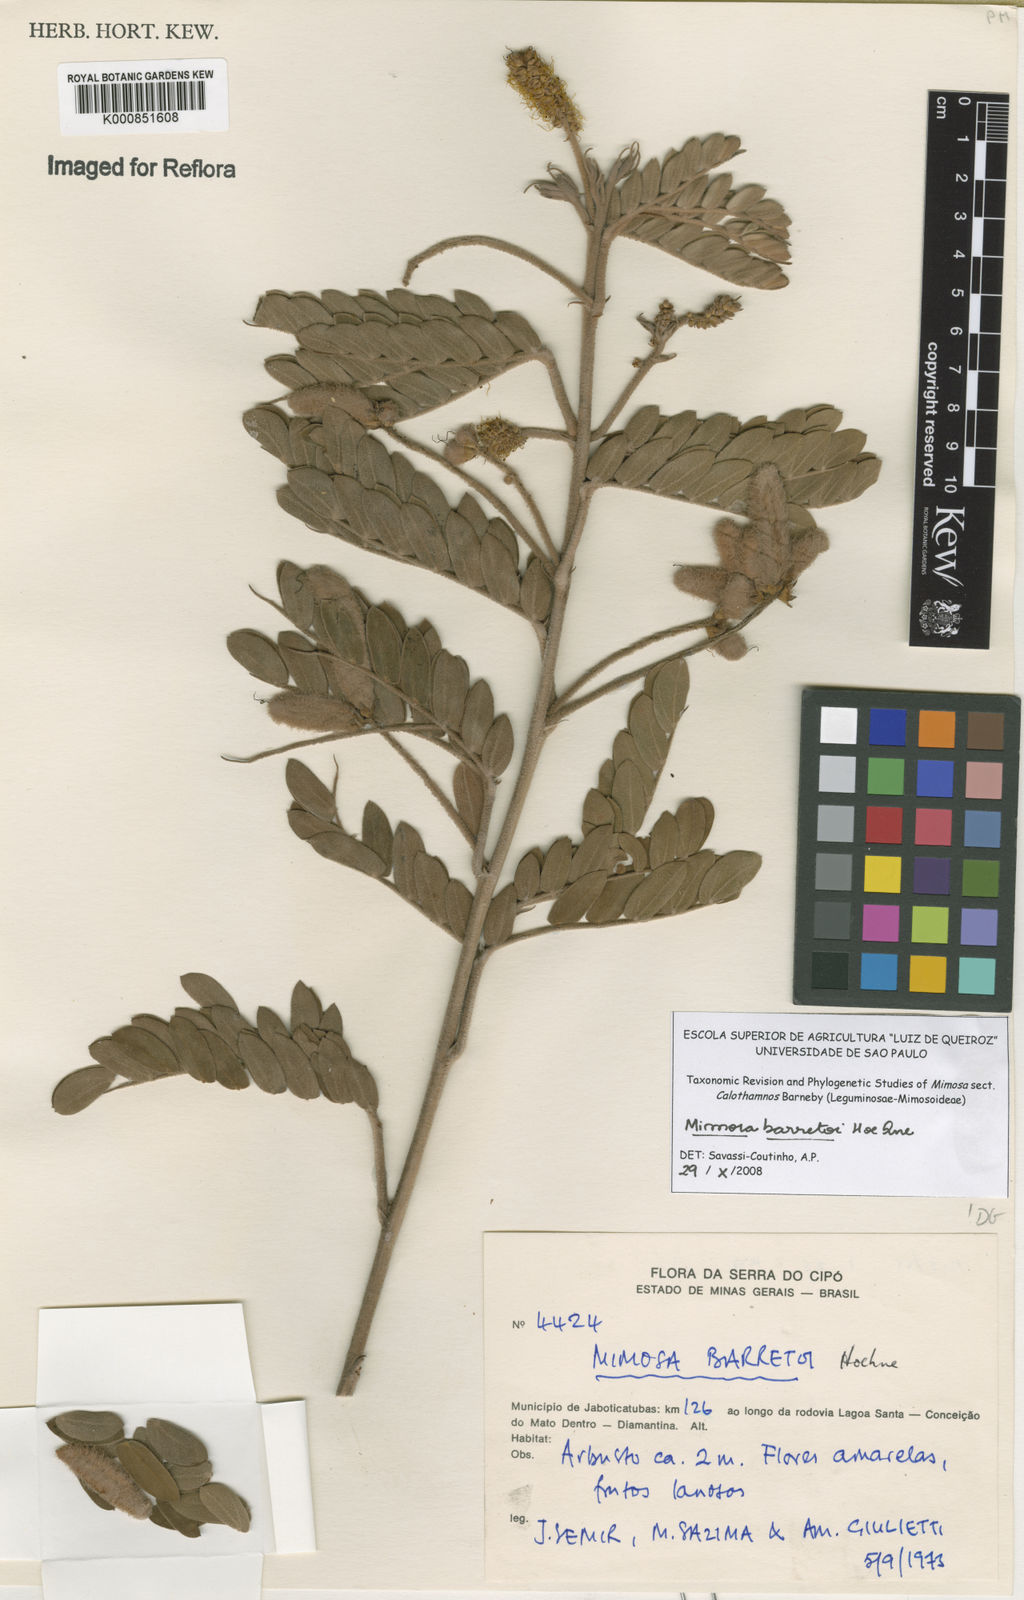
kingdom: Plantae
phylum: Tracheophyta
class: Magnoliopsida
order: Fabales
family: Fabaceae
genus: Mimosa
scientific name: Mimosa barretoi
